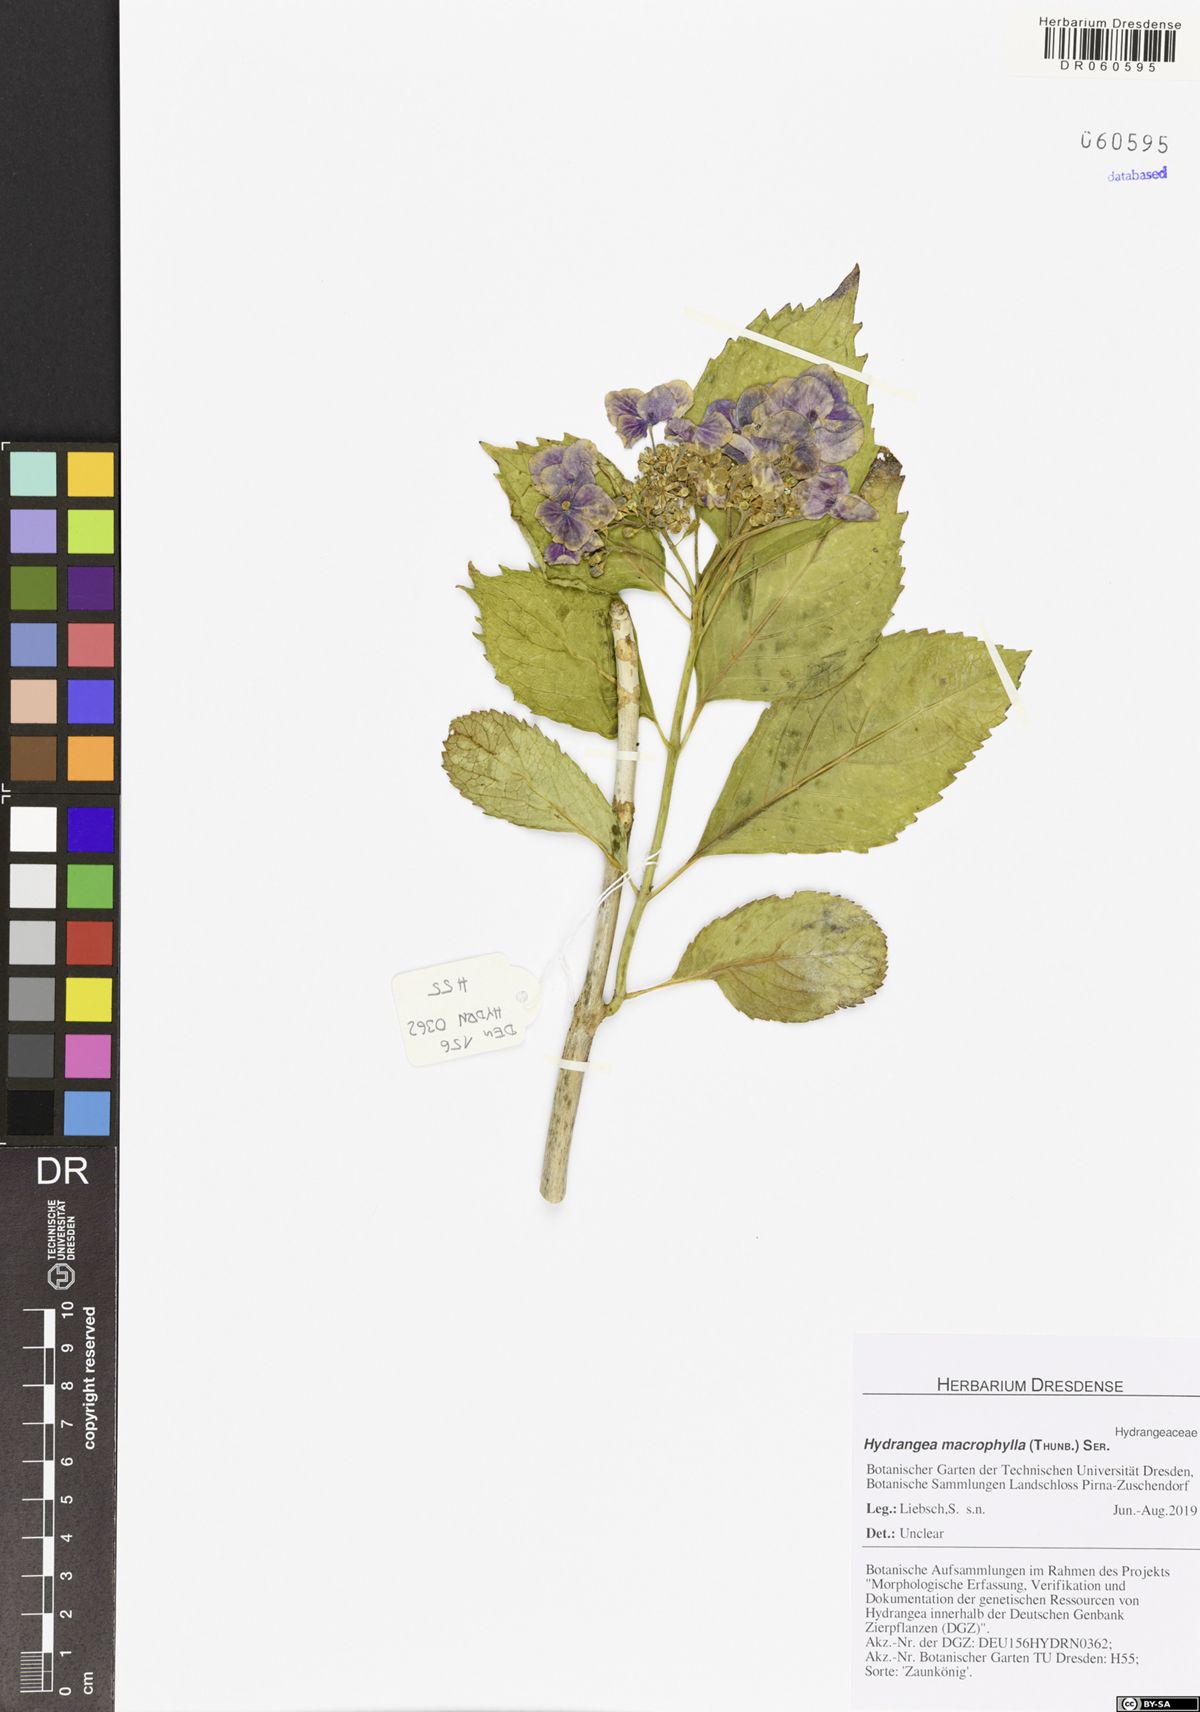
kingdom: Plantae
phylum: Tracheophyta
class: Magnoliopsida
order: Cornales
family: Hydrangeaceae
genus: Hydrangea
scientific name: Hydrangea macrophylla
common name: Hydrangea
